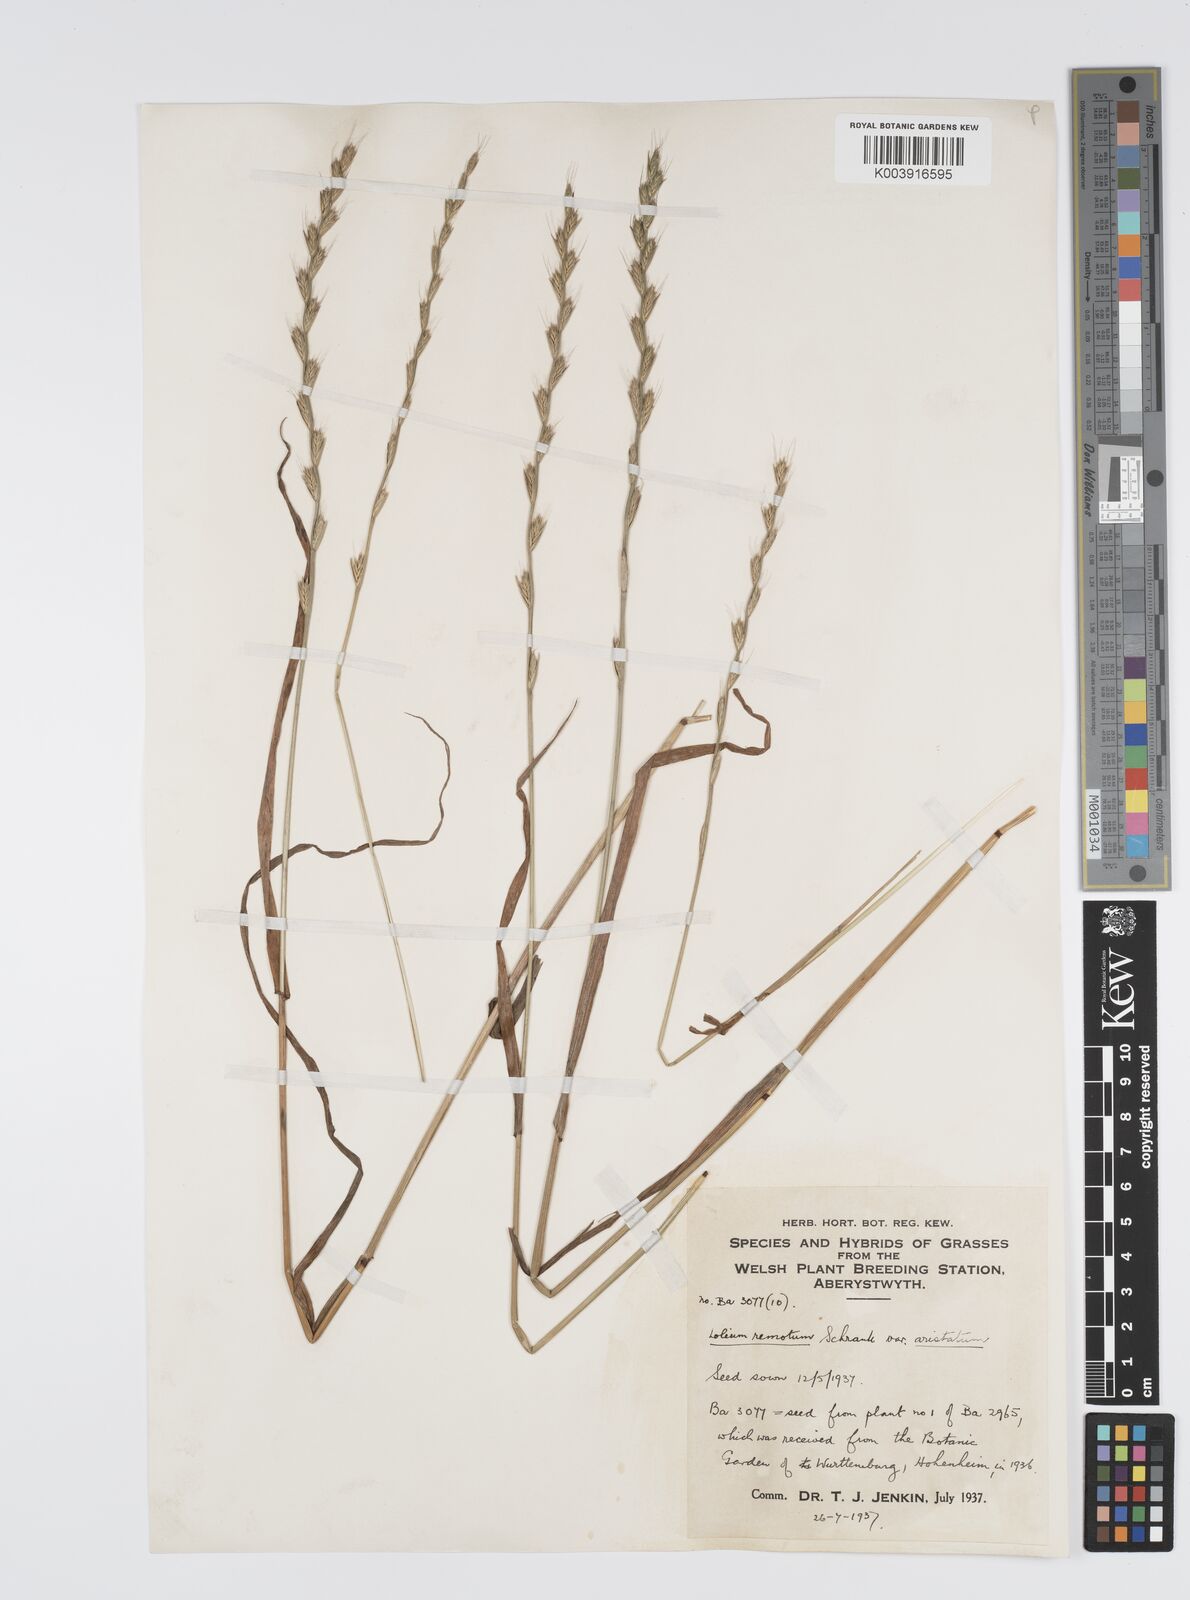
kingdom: Plantae
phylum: Tracheophyta
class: Liliopsida
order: Poales
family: Poaceae
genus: Lolium
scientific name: Lolium remotum
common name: Flaxfield rye-grass
